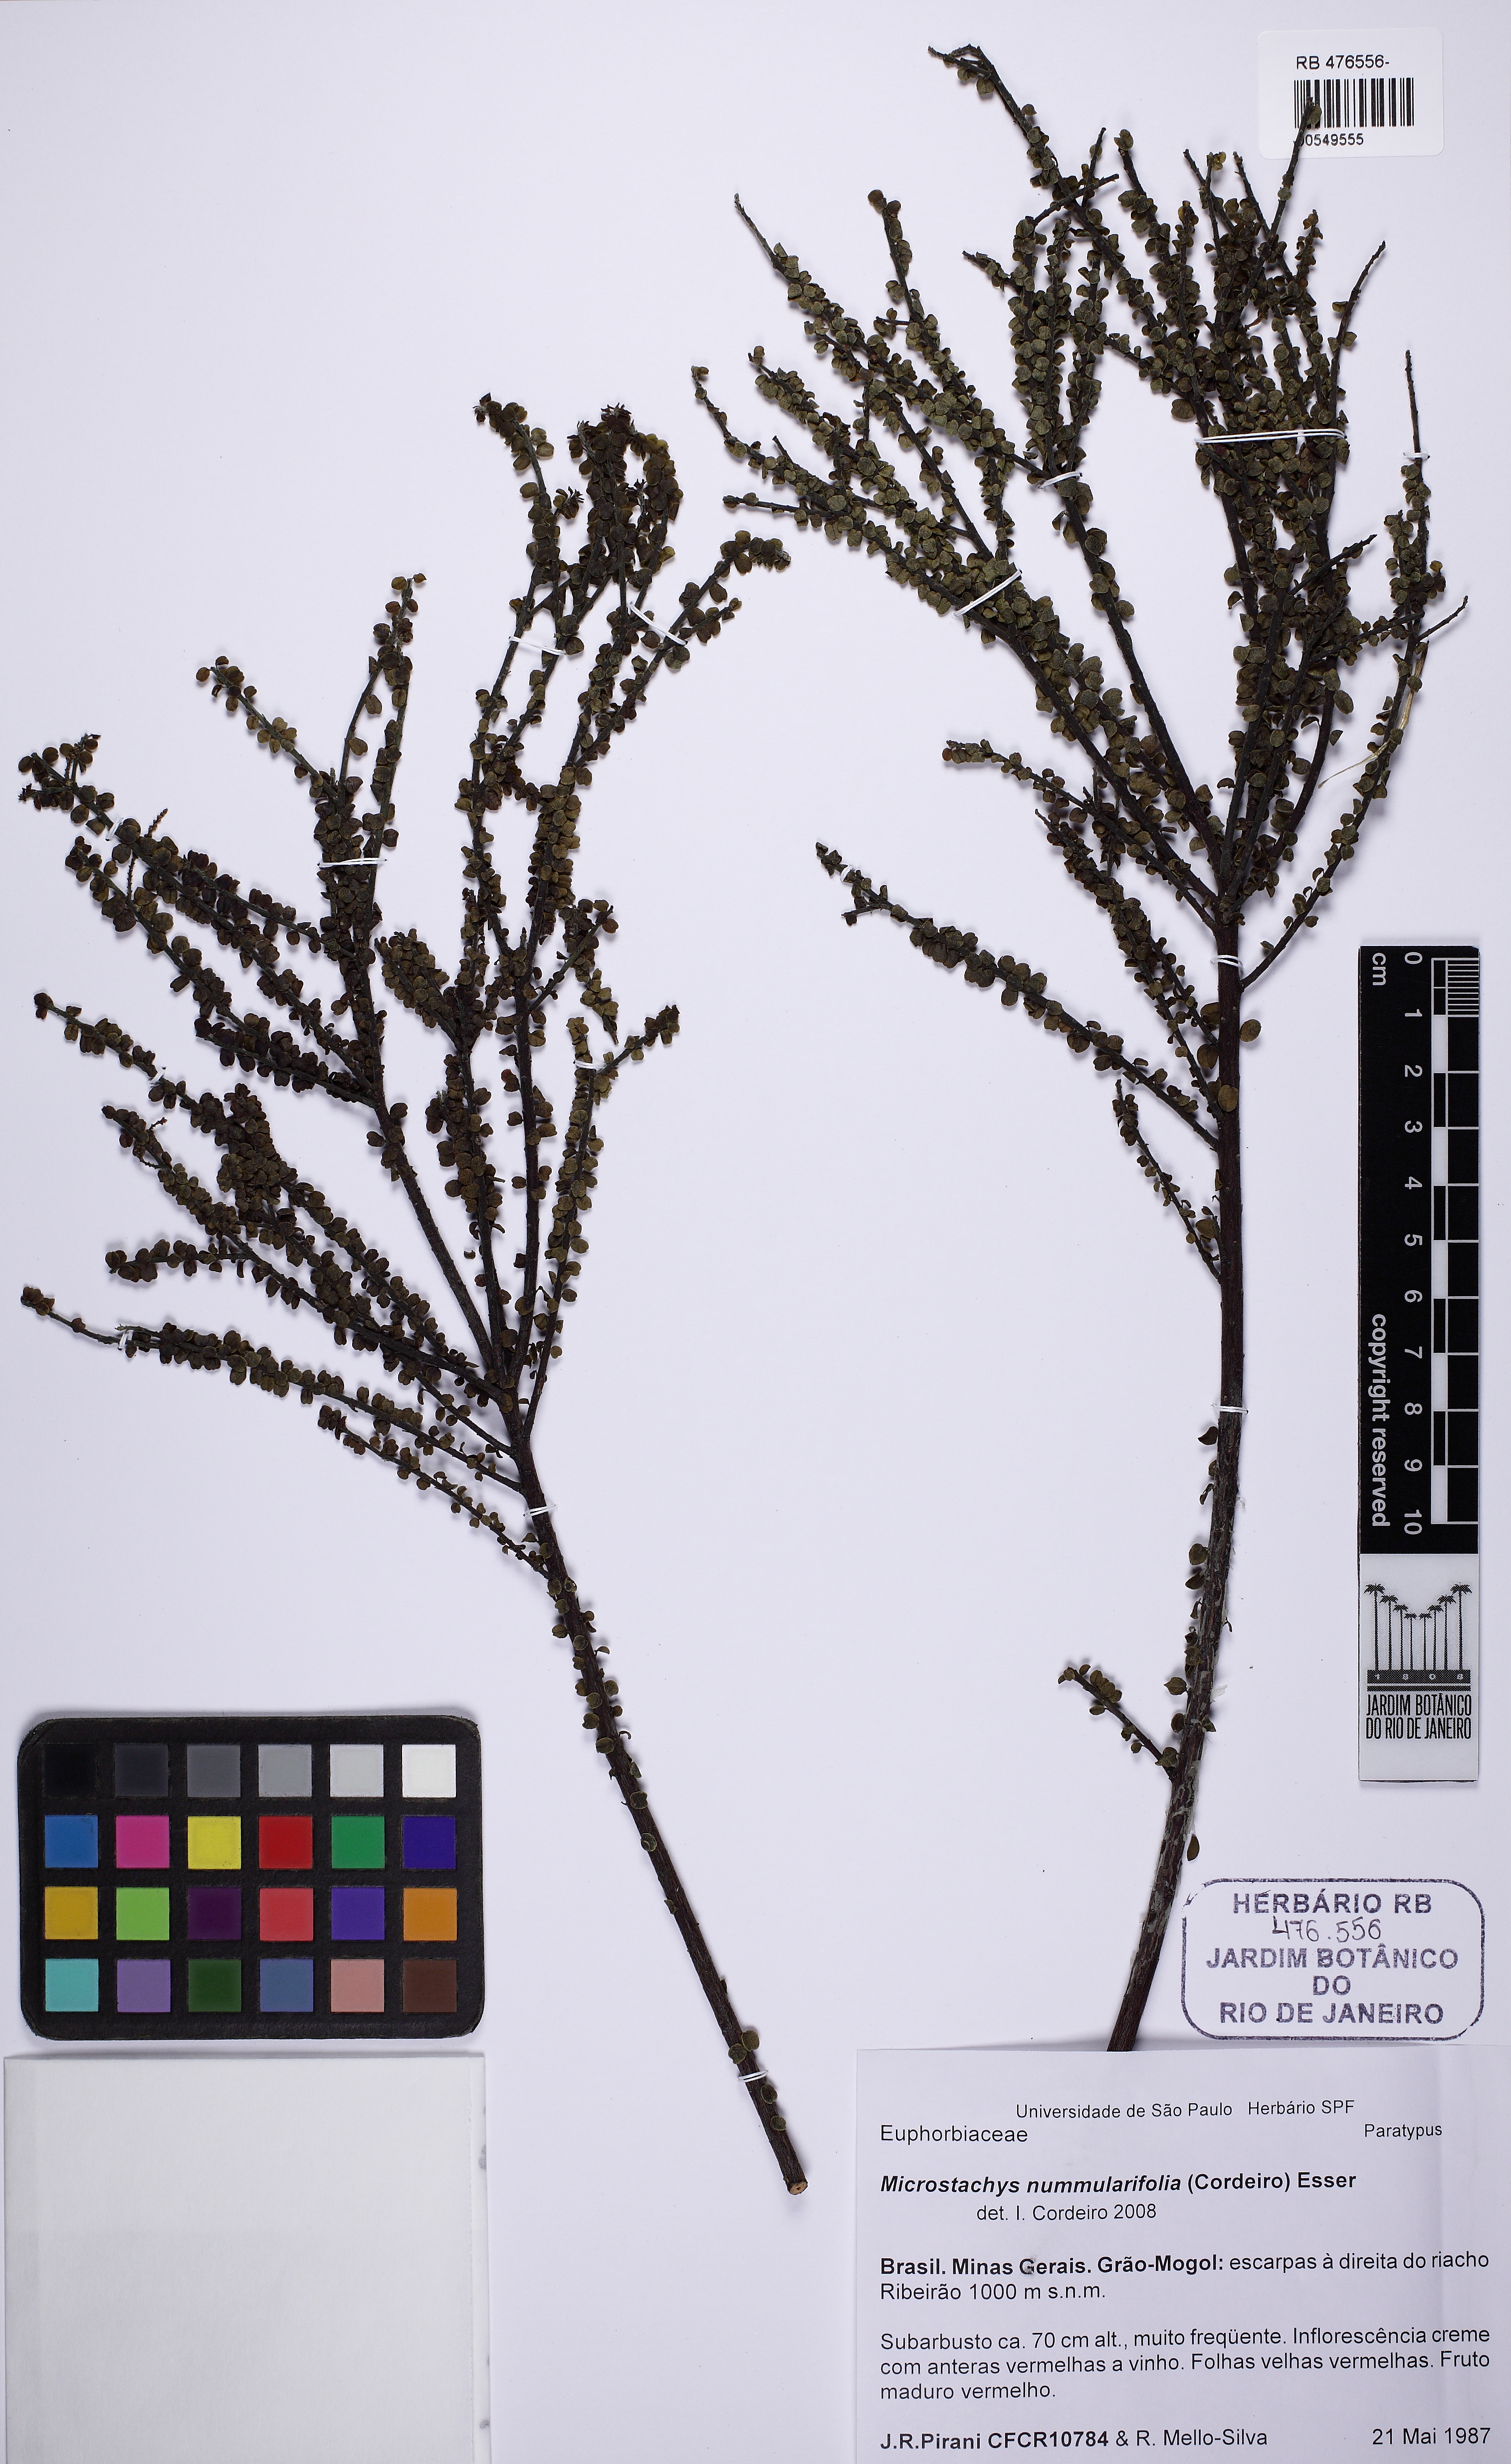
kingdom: Plantae
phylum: Tracheophyta
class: Magnoliopsida
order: Malpighiales
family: Euphorbiaceae
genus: Microstachys
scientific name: Microstachys nummulariifolia
